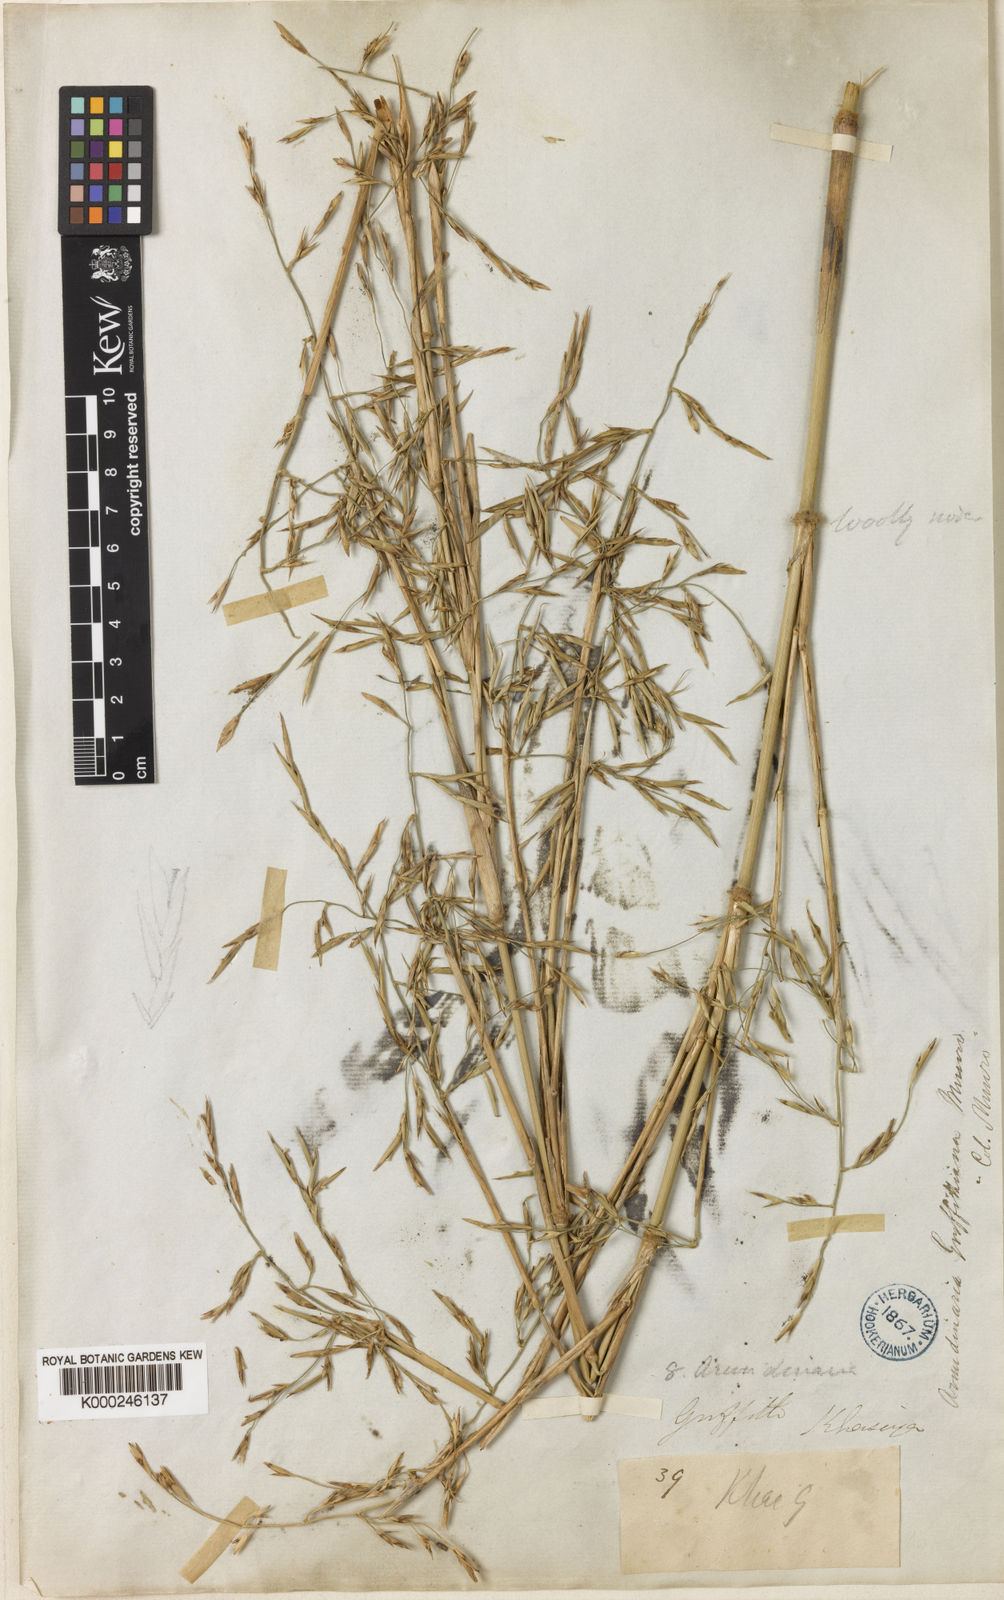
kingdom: Plantae
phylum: Tracheophyta
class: Liliopsida
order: Poales
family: Poaceae
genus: Chimonocalamus
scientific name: Chimonocalamus griffithianus
